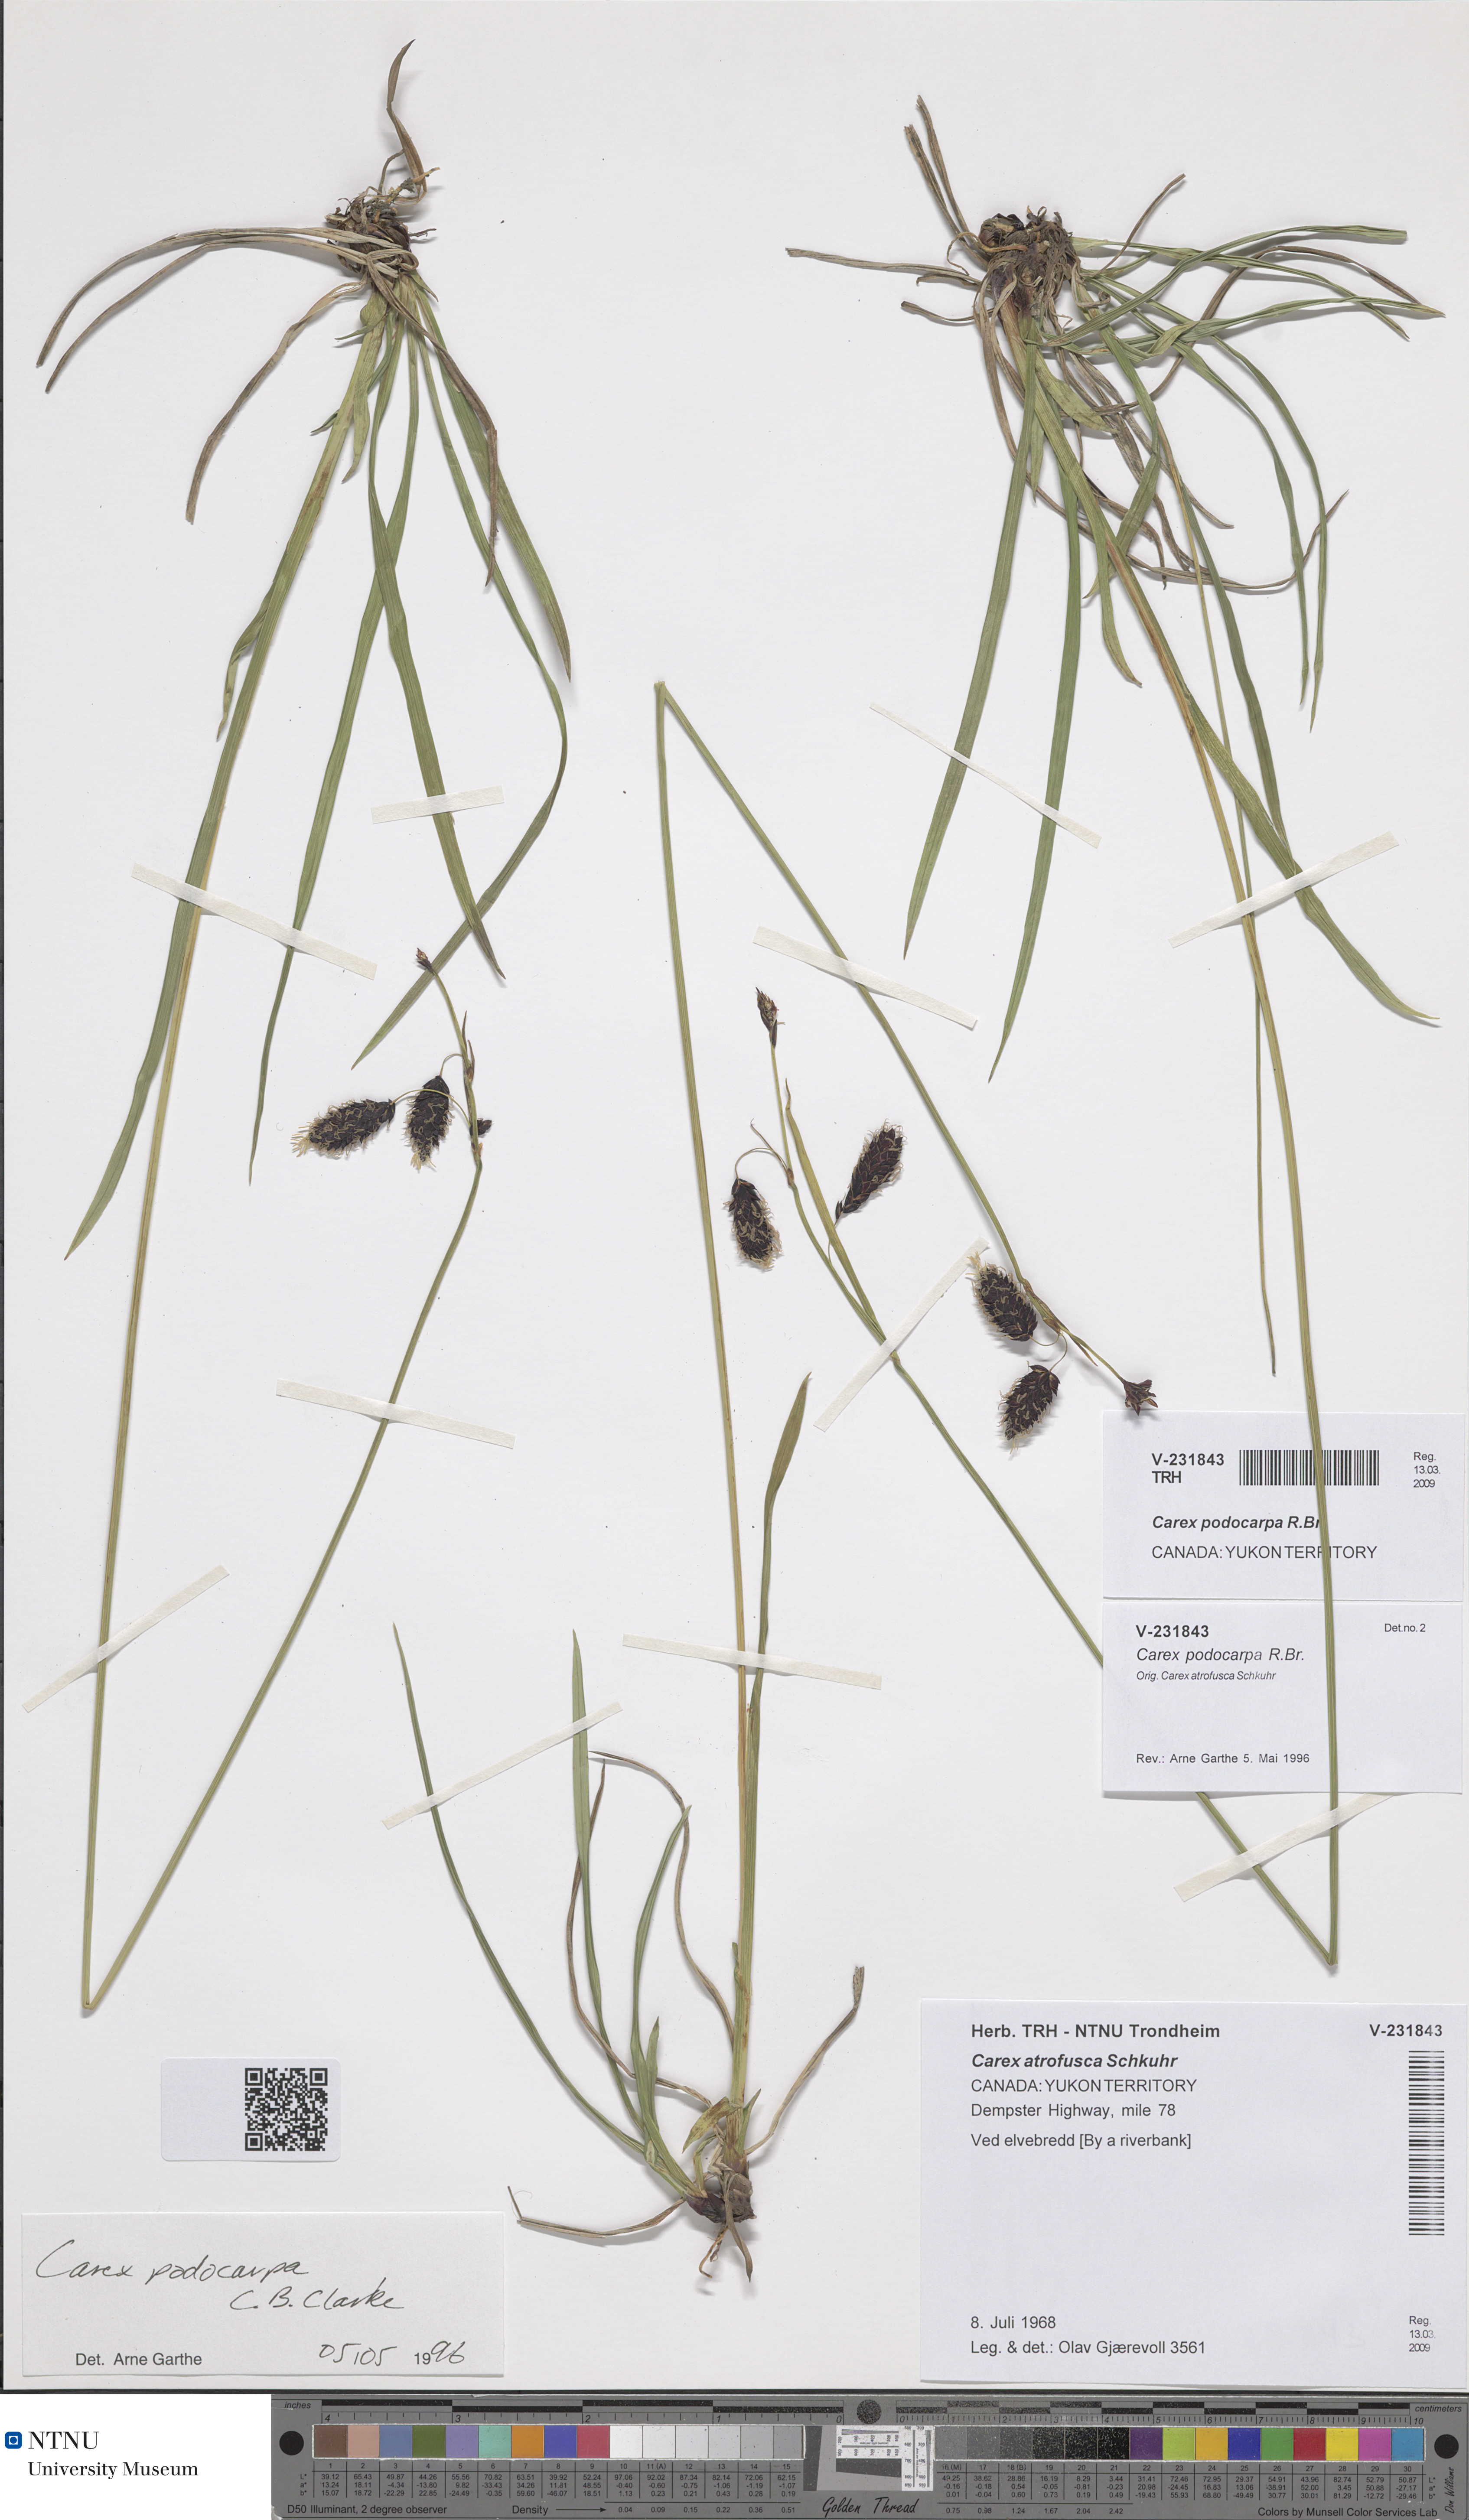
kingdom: Plantae
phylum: Tracheophyta
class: Liliopsida
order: Poales
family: Cyperaceae
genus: Carex
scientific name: Carex podocarpa
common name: Alpine sedge
